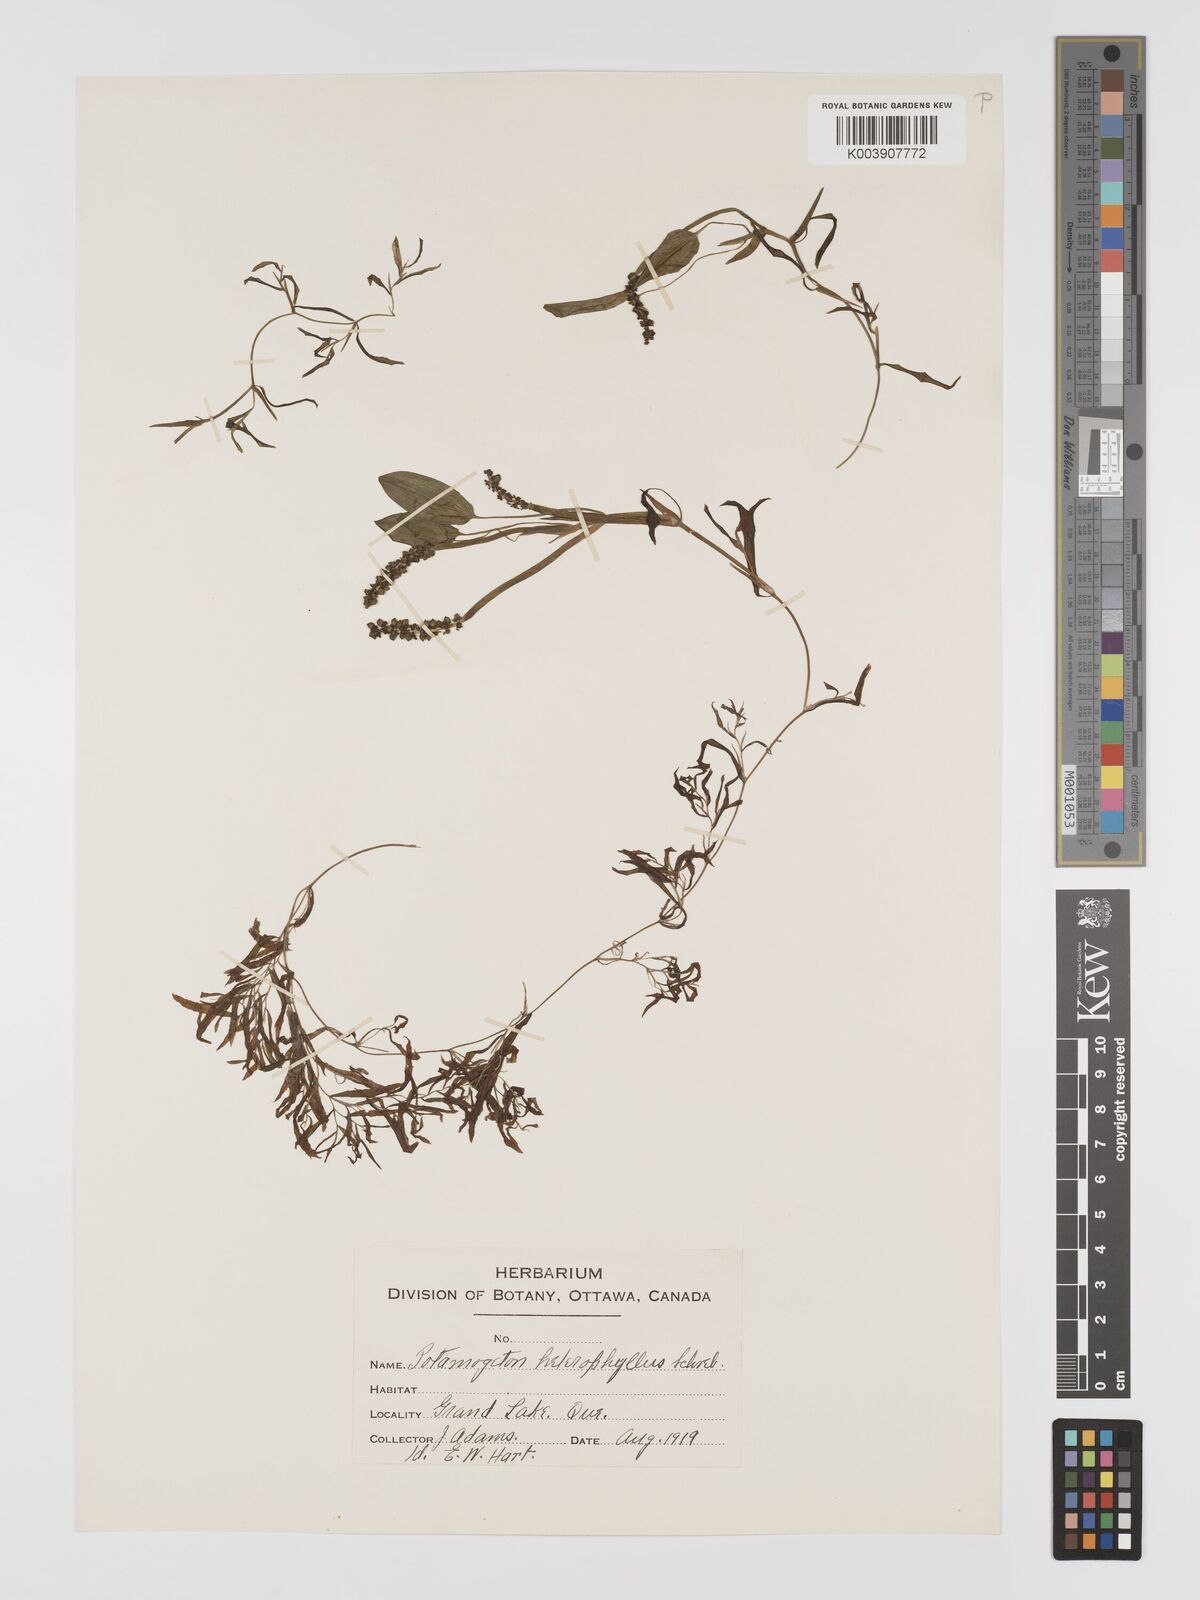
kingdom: Plantae
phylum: Tracheophyta
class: Liliopsida
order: Alismatales
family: Potamogetonaceae
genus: Potamogeton
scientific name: Potamogeton gramineus
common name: Various-leaved pondweed
